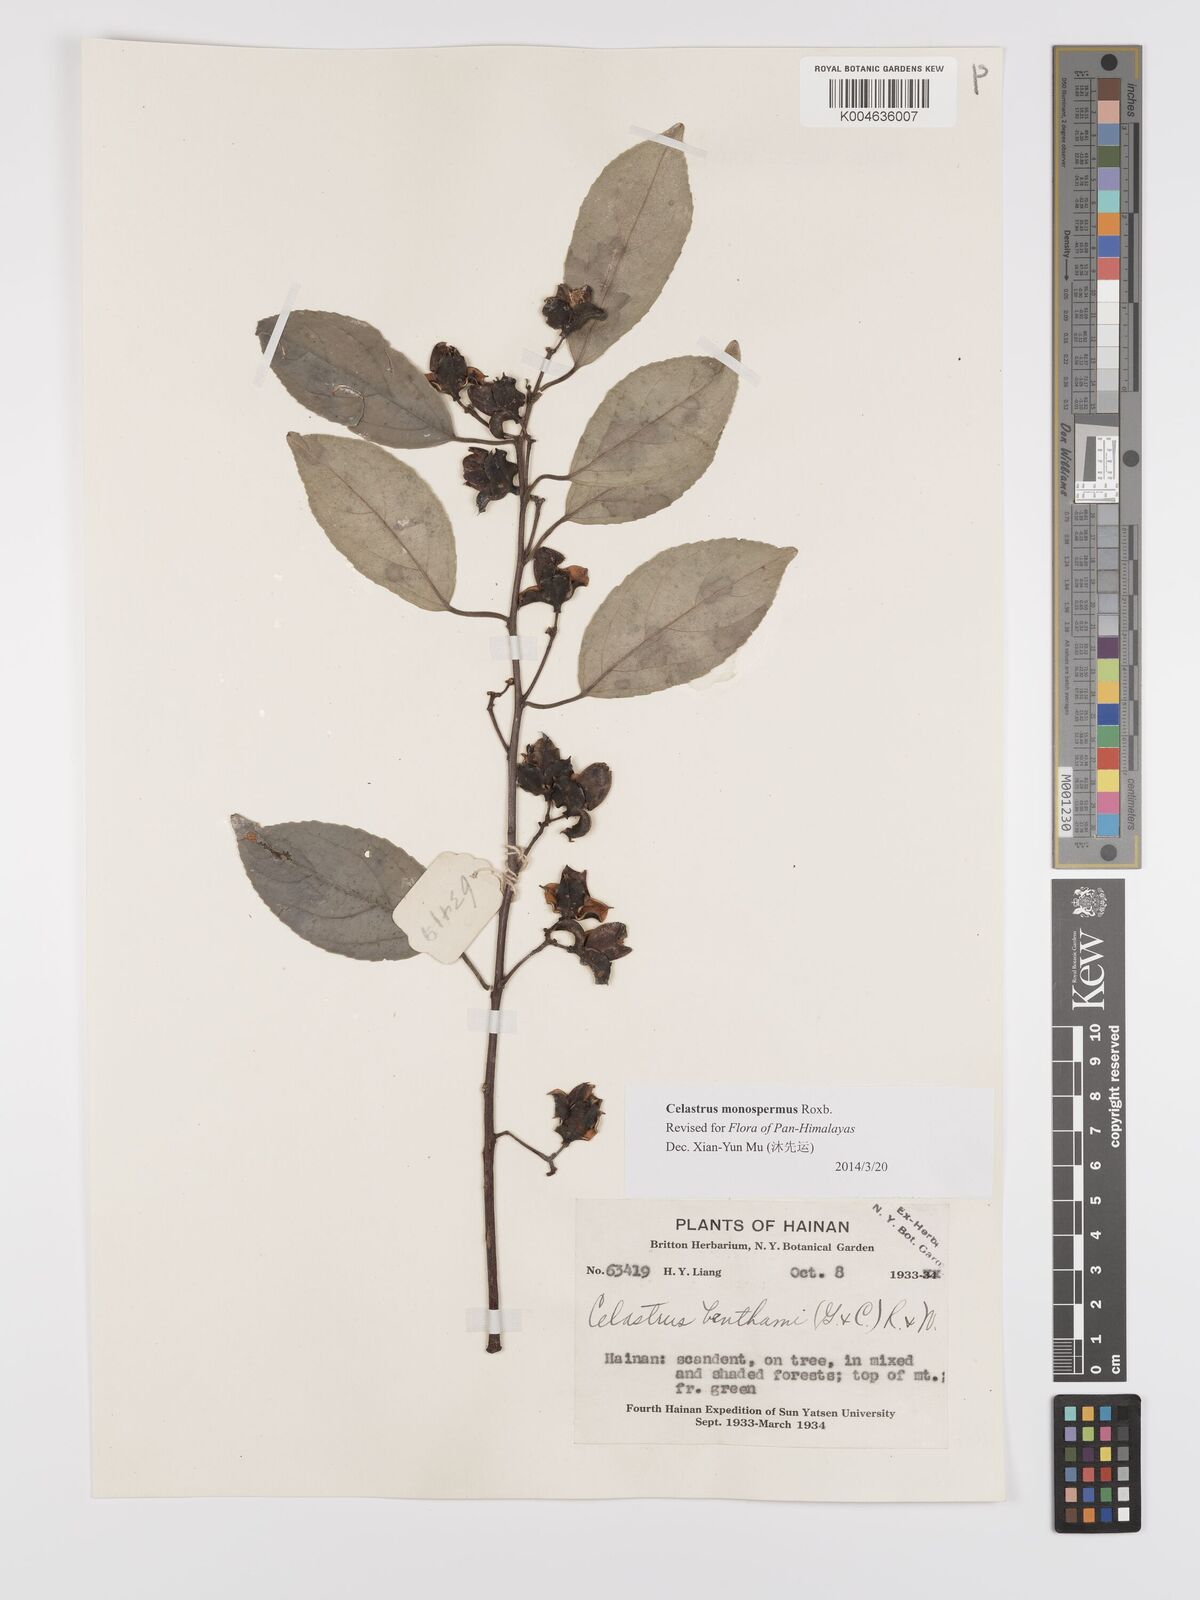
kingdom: Plantae
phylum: Tracheophyta
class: Magnoliopsida
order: Celastrales
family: Celastraceae
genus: Celastrus
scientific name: Celastrus monospermus
